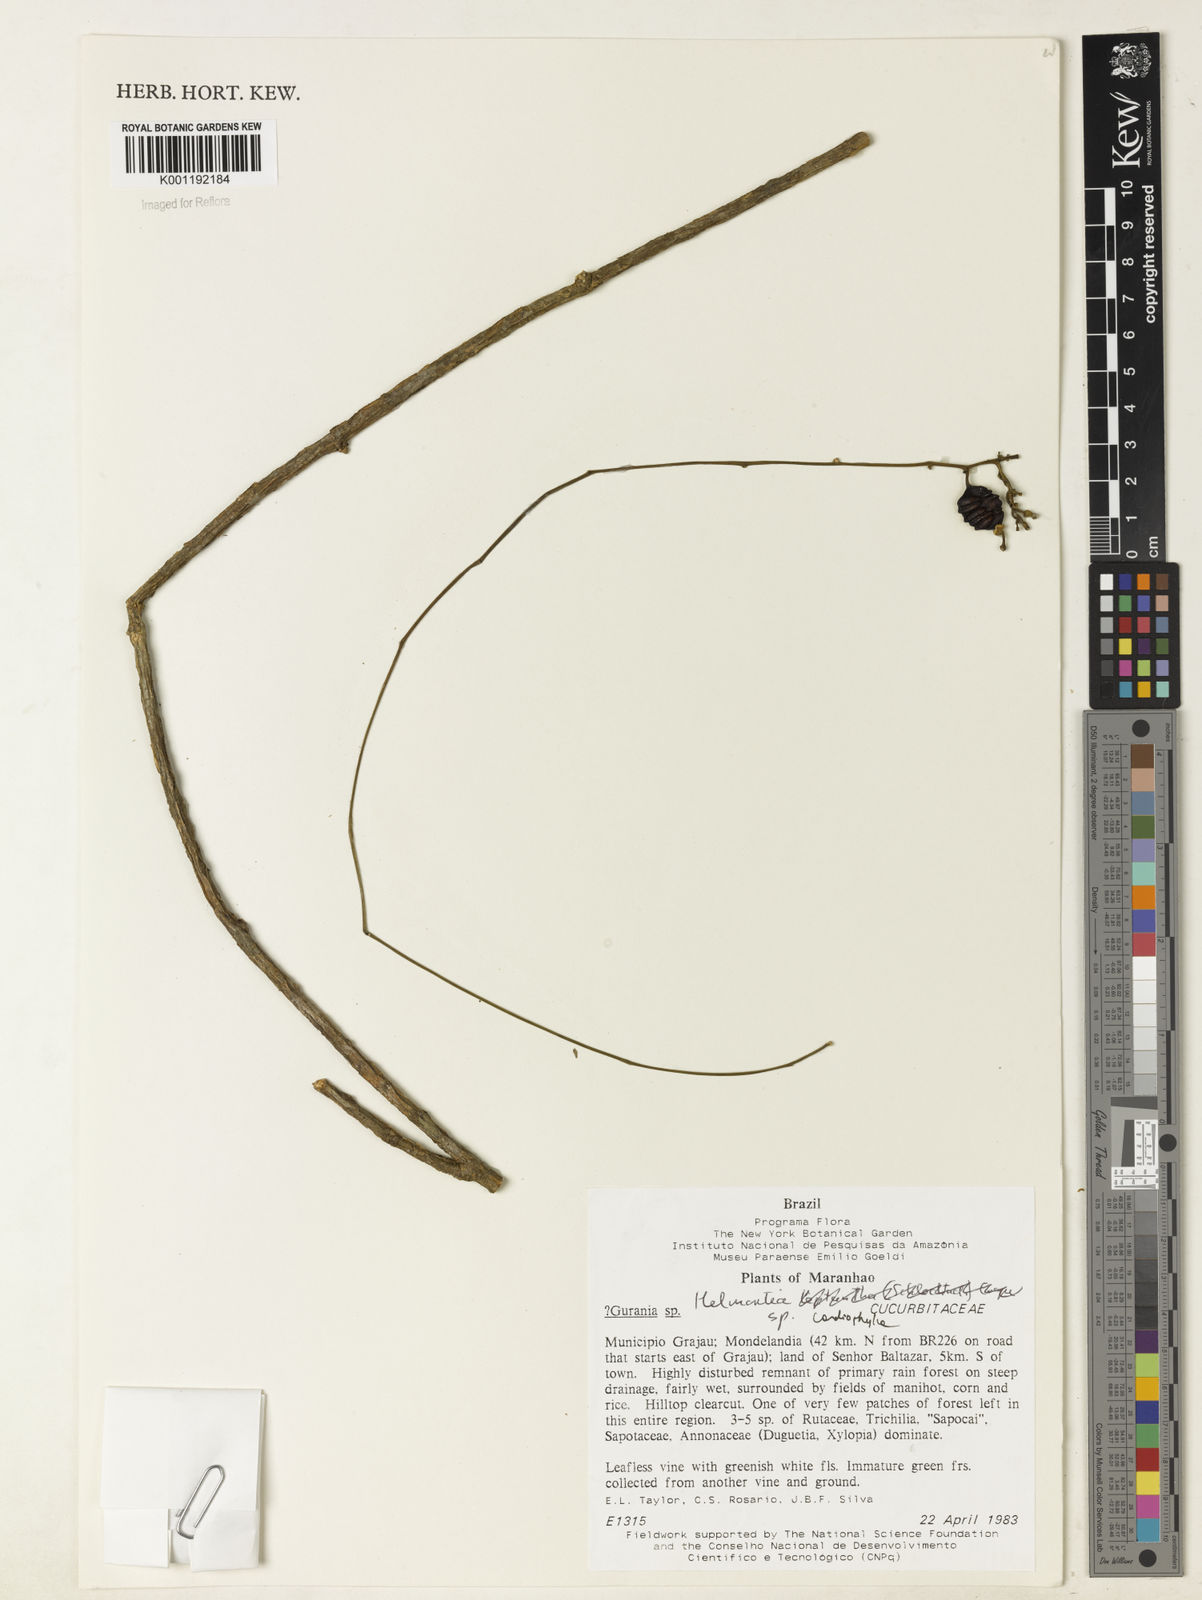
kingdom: Plantae
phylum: Tracheophyta
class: Magnoliopsida
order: Cucurbitales
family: Cucurbitaceae
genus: Helmontia
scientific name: Helmontia cardiophylla
